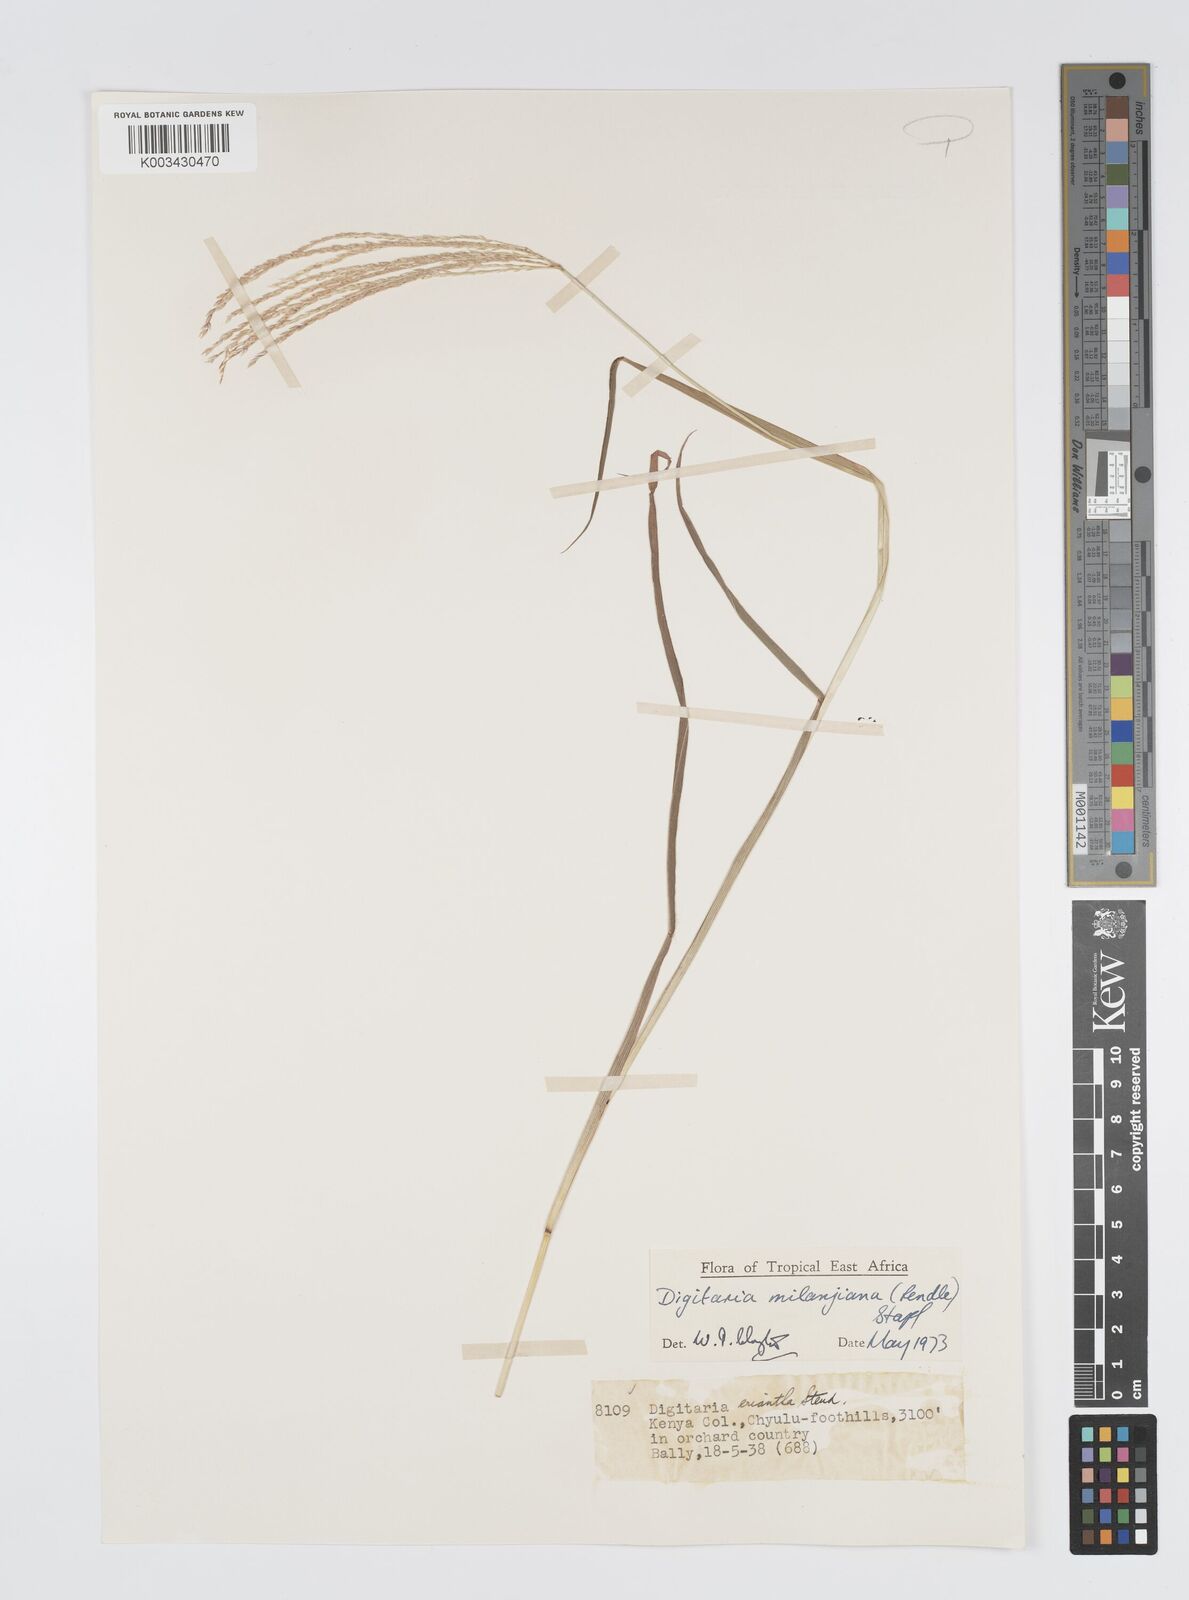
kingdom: Plantae
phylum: Tracheophyta
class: Liliopsida
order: Poales
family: Poaceae
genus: Digitaria
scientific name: Digitaria milanjiana
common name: Madagascar crabgrass
